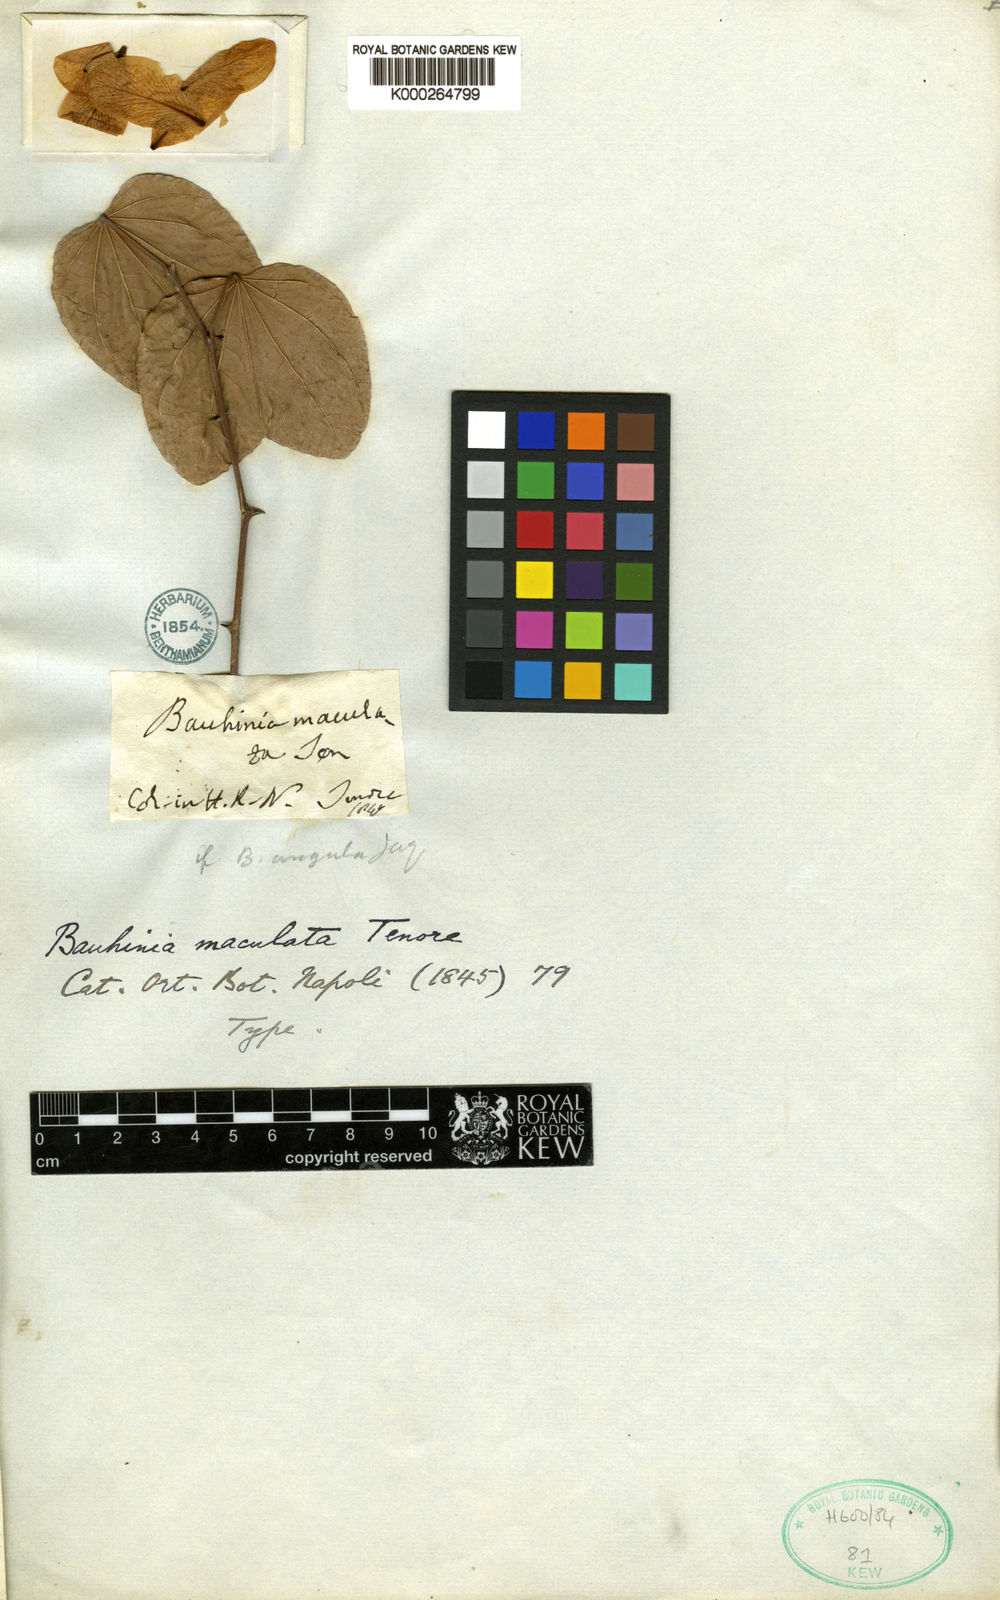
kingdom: Plantae
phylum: Tracheophyta
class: Magnoliopsida
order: Fabales
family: Fabaceae
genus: Bauhinia
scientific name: Bauhinia maculata
